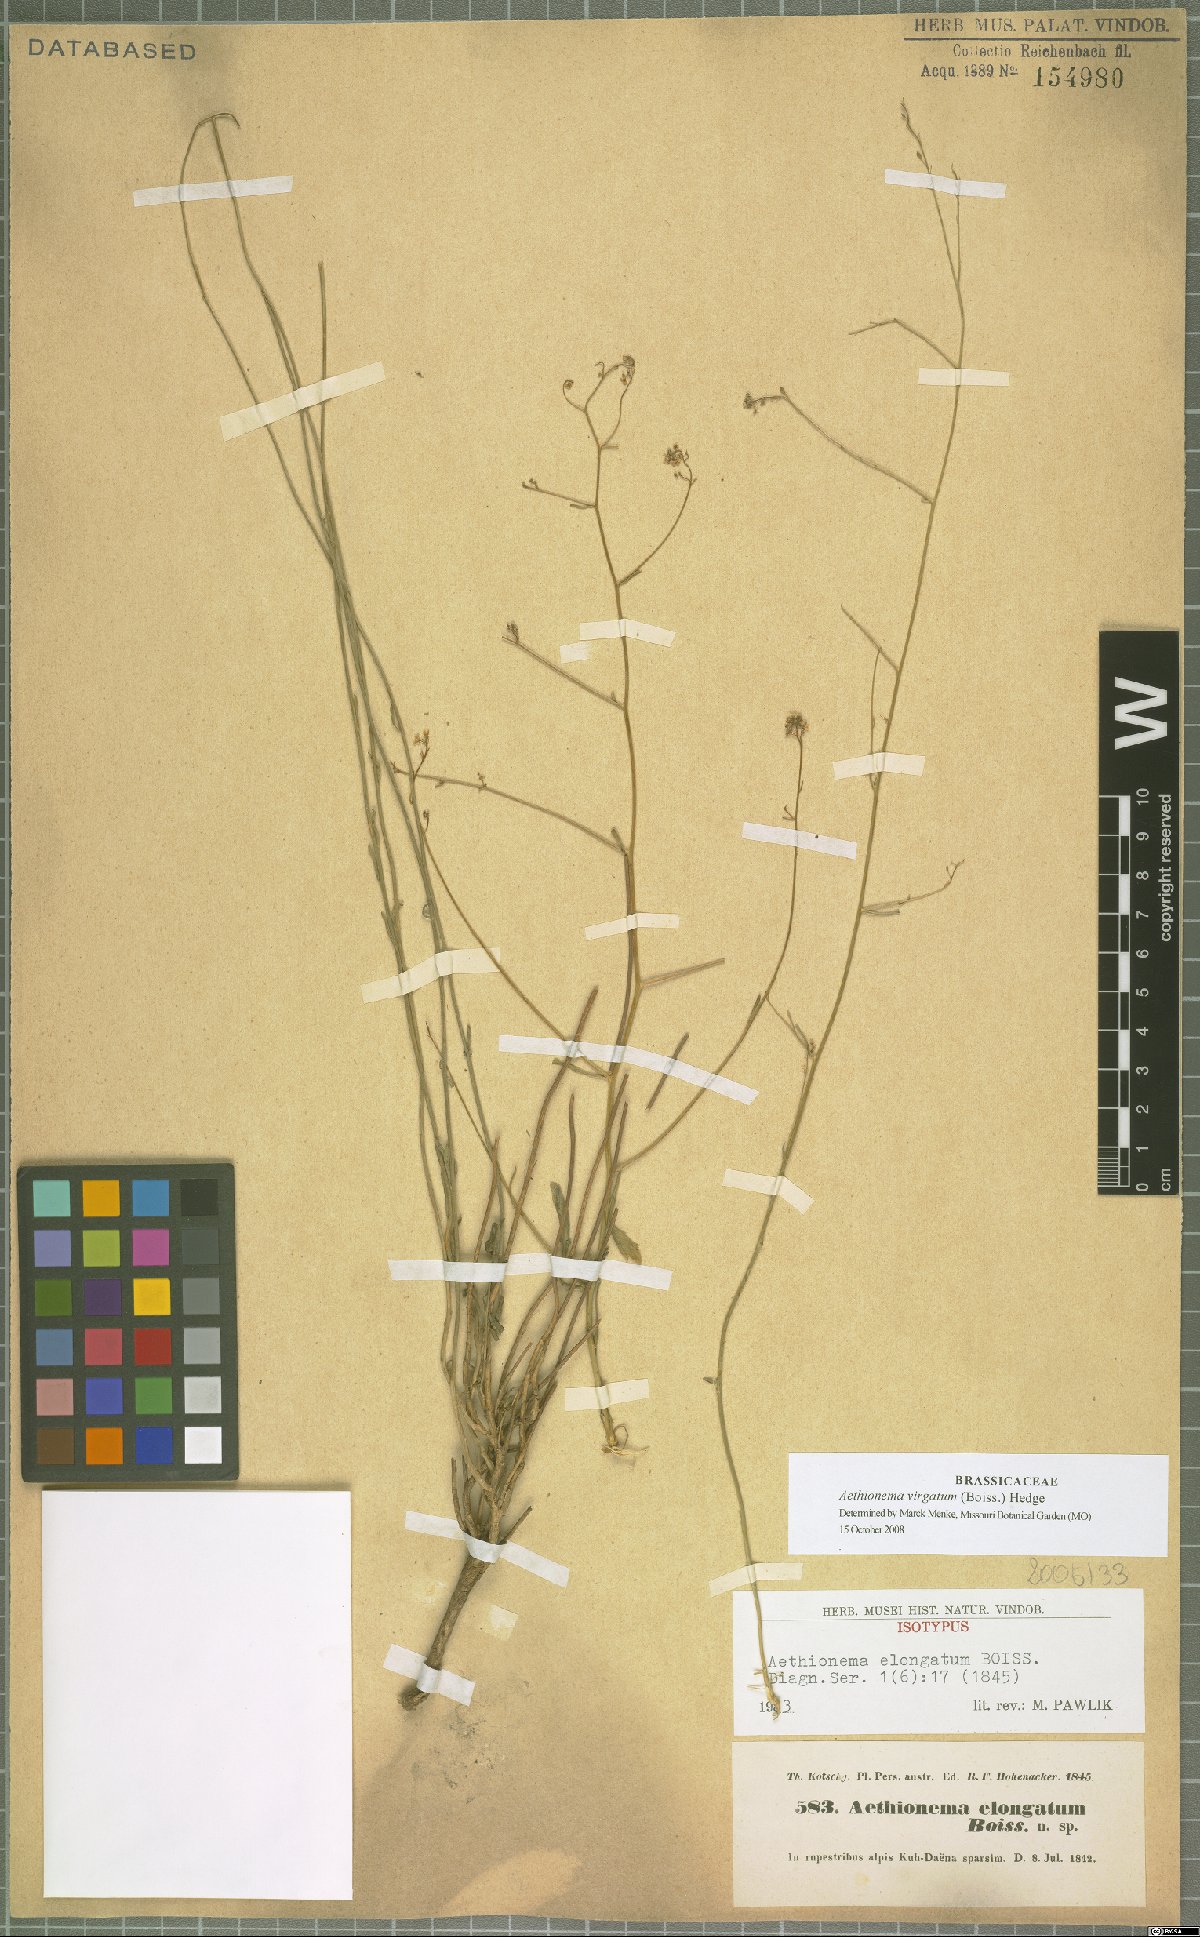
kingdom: Plantae
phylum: Tracheophyta
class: Magnoliopsida
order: Brassicales
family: Brassicaceae
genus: Aethionema
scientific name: Aethionema virgatum
